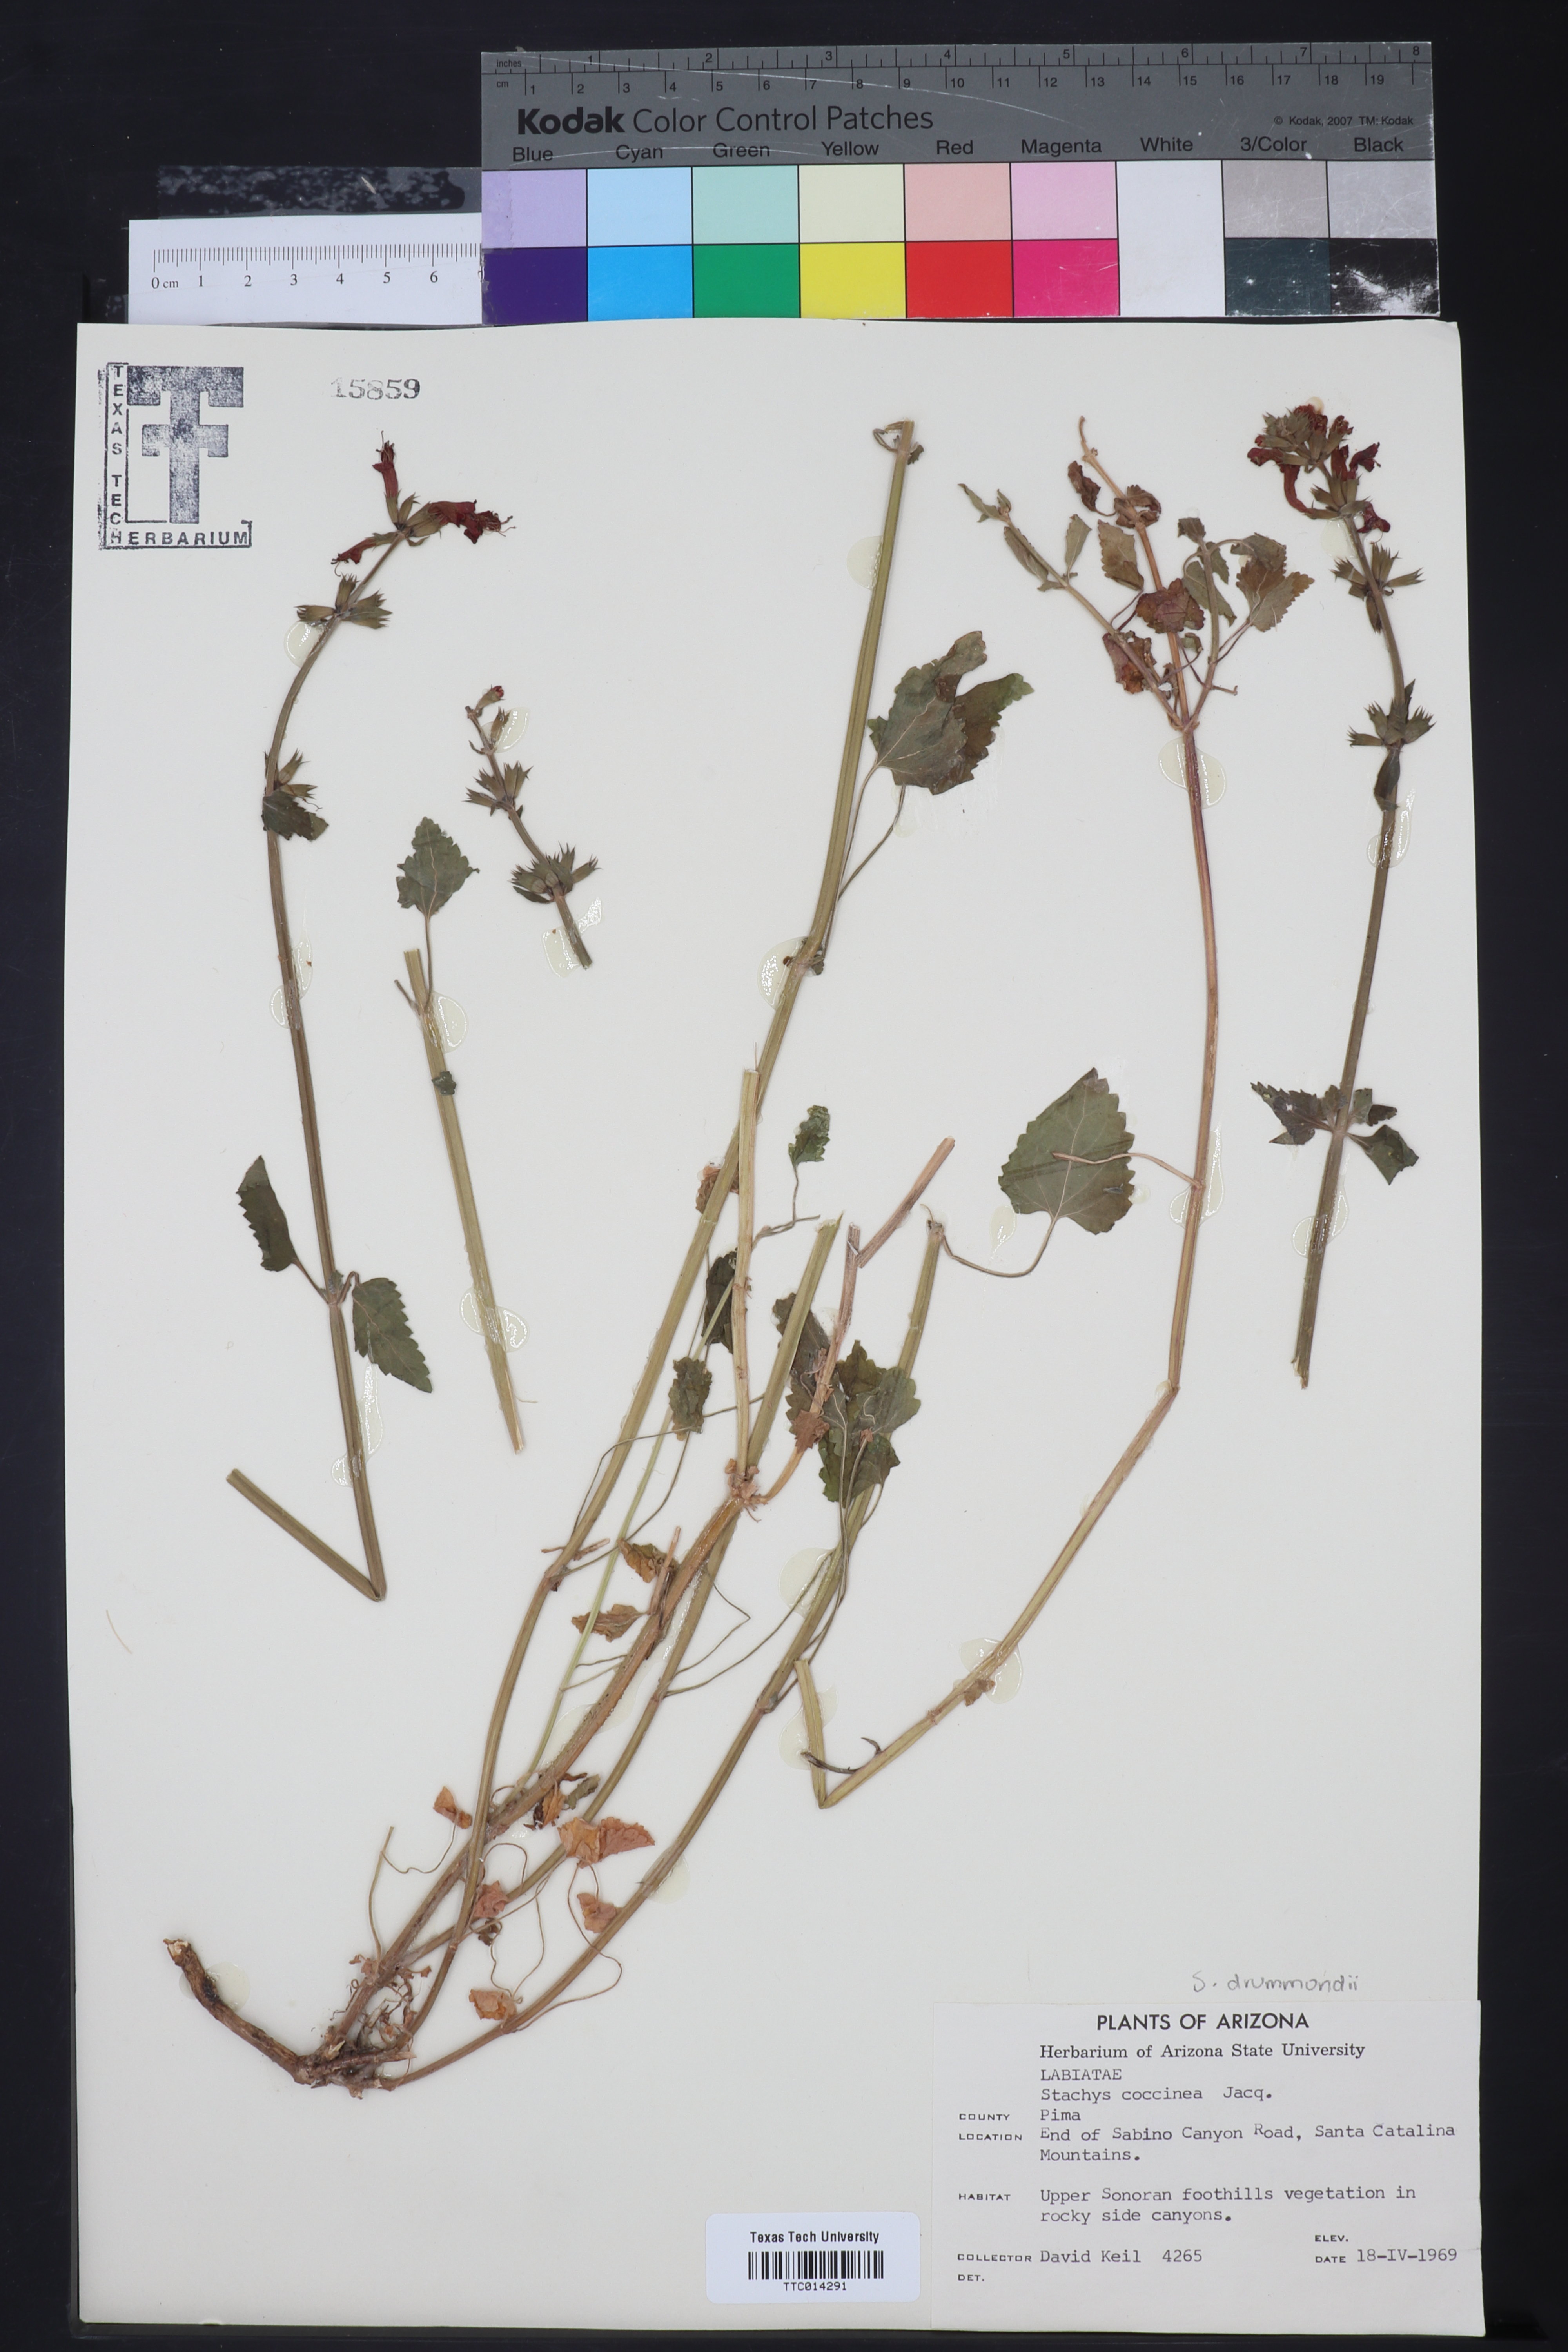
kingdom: Plantae
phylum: Tracheophyta
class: Magnoliopsida
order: Lamiales
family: Lamiaceae
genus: Stachys
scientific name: Stachys coccinea
